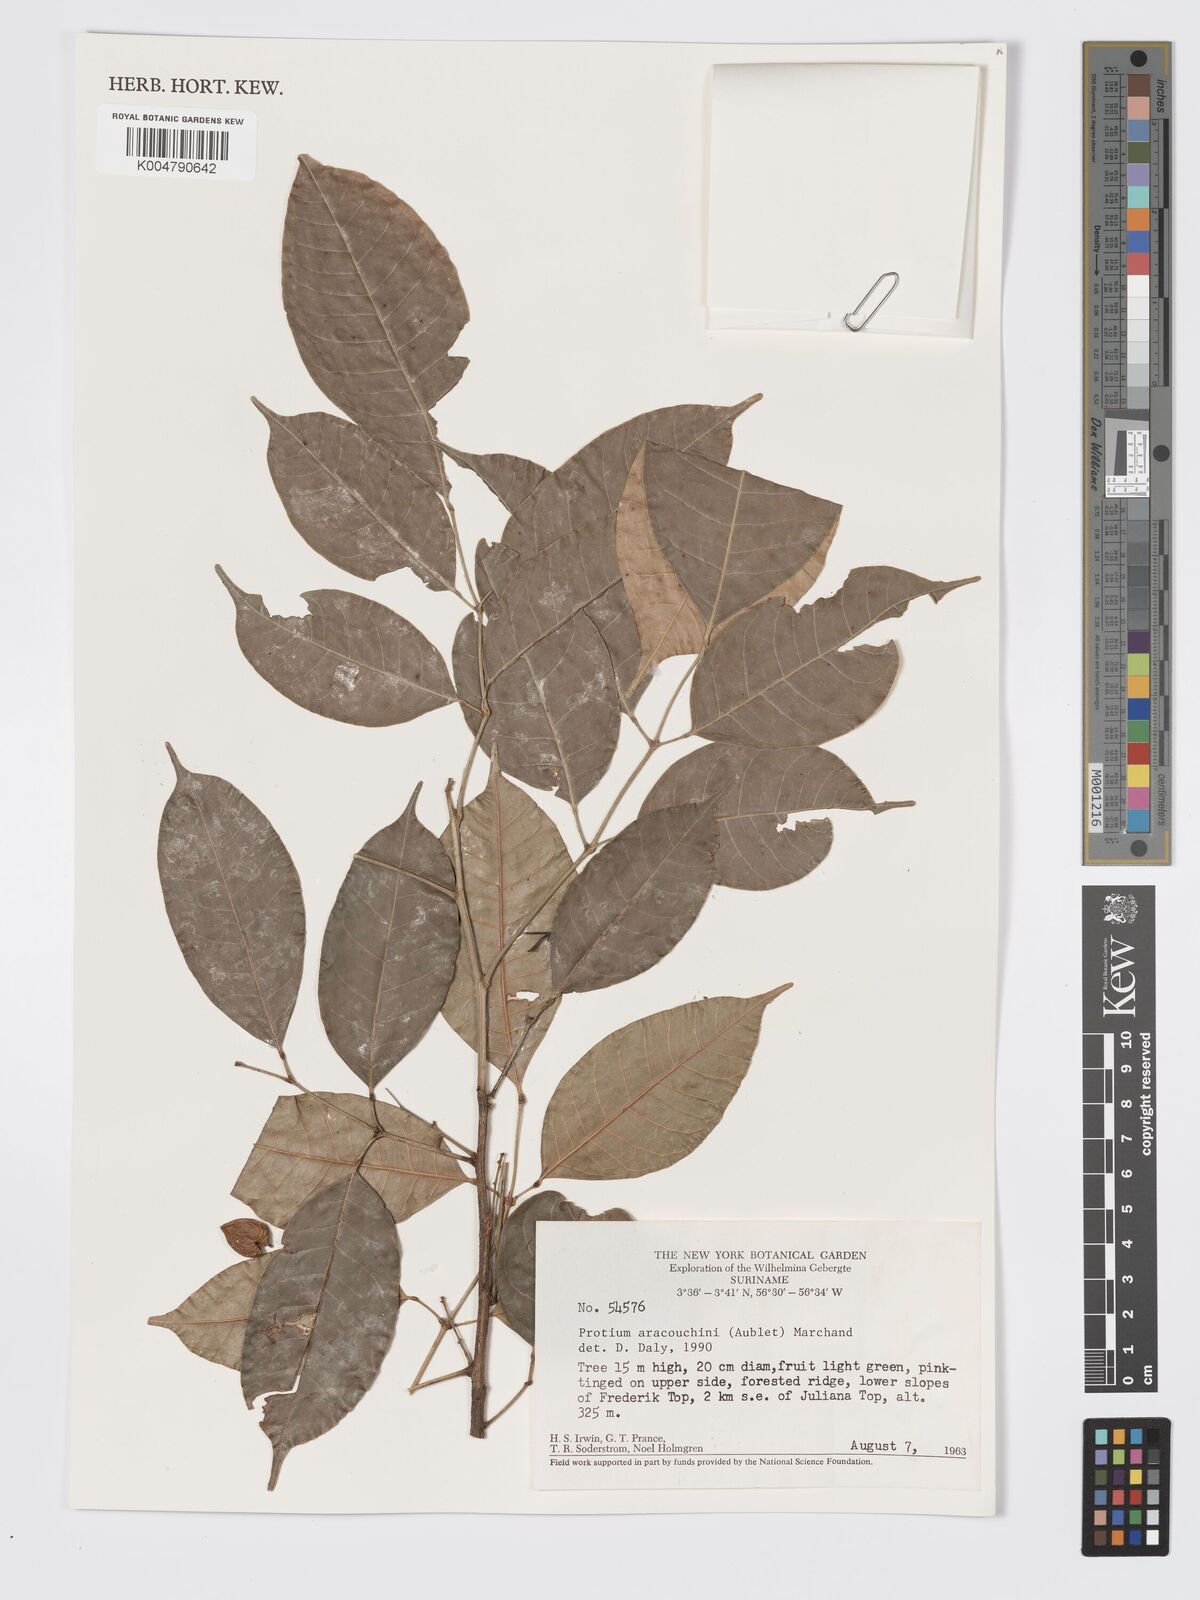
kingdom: Plantae
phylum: Tracheophyta
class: Magnoliopsida
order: Sapindales
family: Burseraceae
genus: Protium
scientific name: Protium aracouchini
